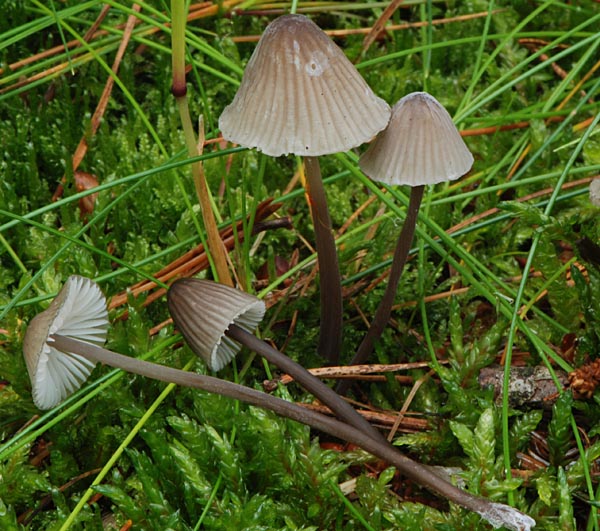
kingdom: Fungi
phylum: Basidiomycota
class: Agaricomycetes
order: Agaricales
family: Mycenaceae
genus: Mycena
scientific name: Mycena galopus
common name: hvidmælket huesvamp
